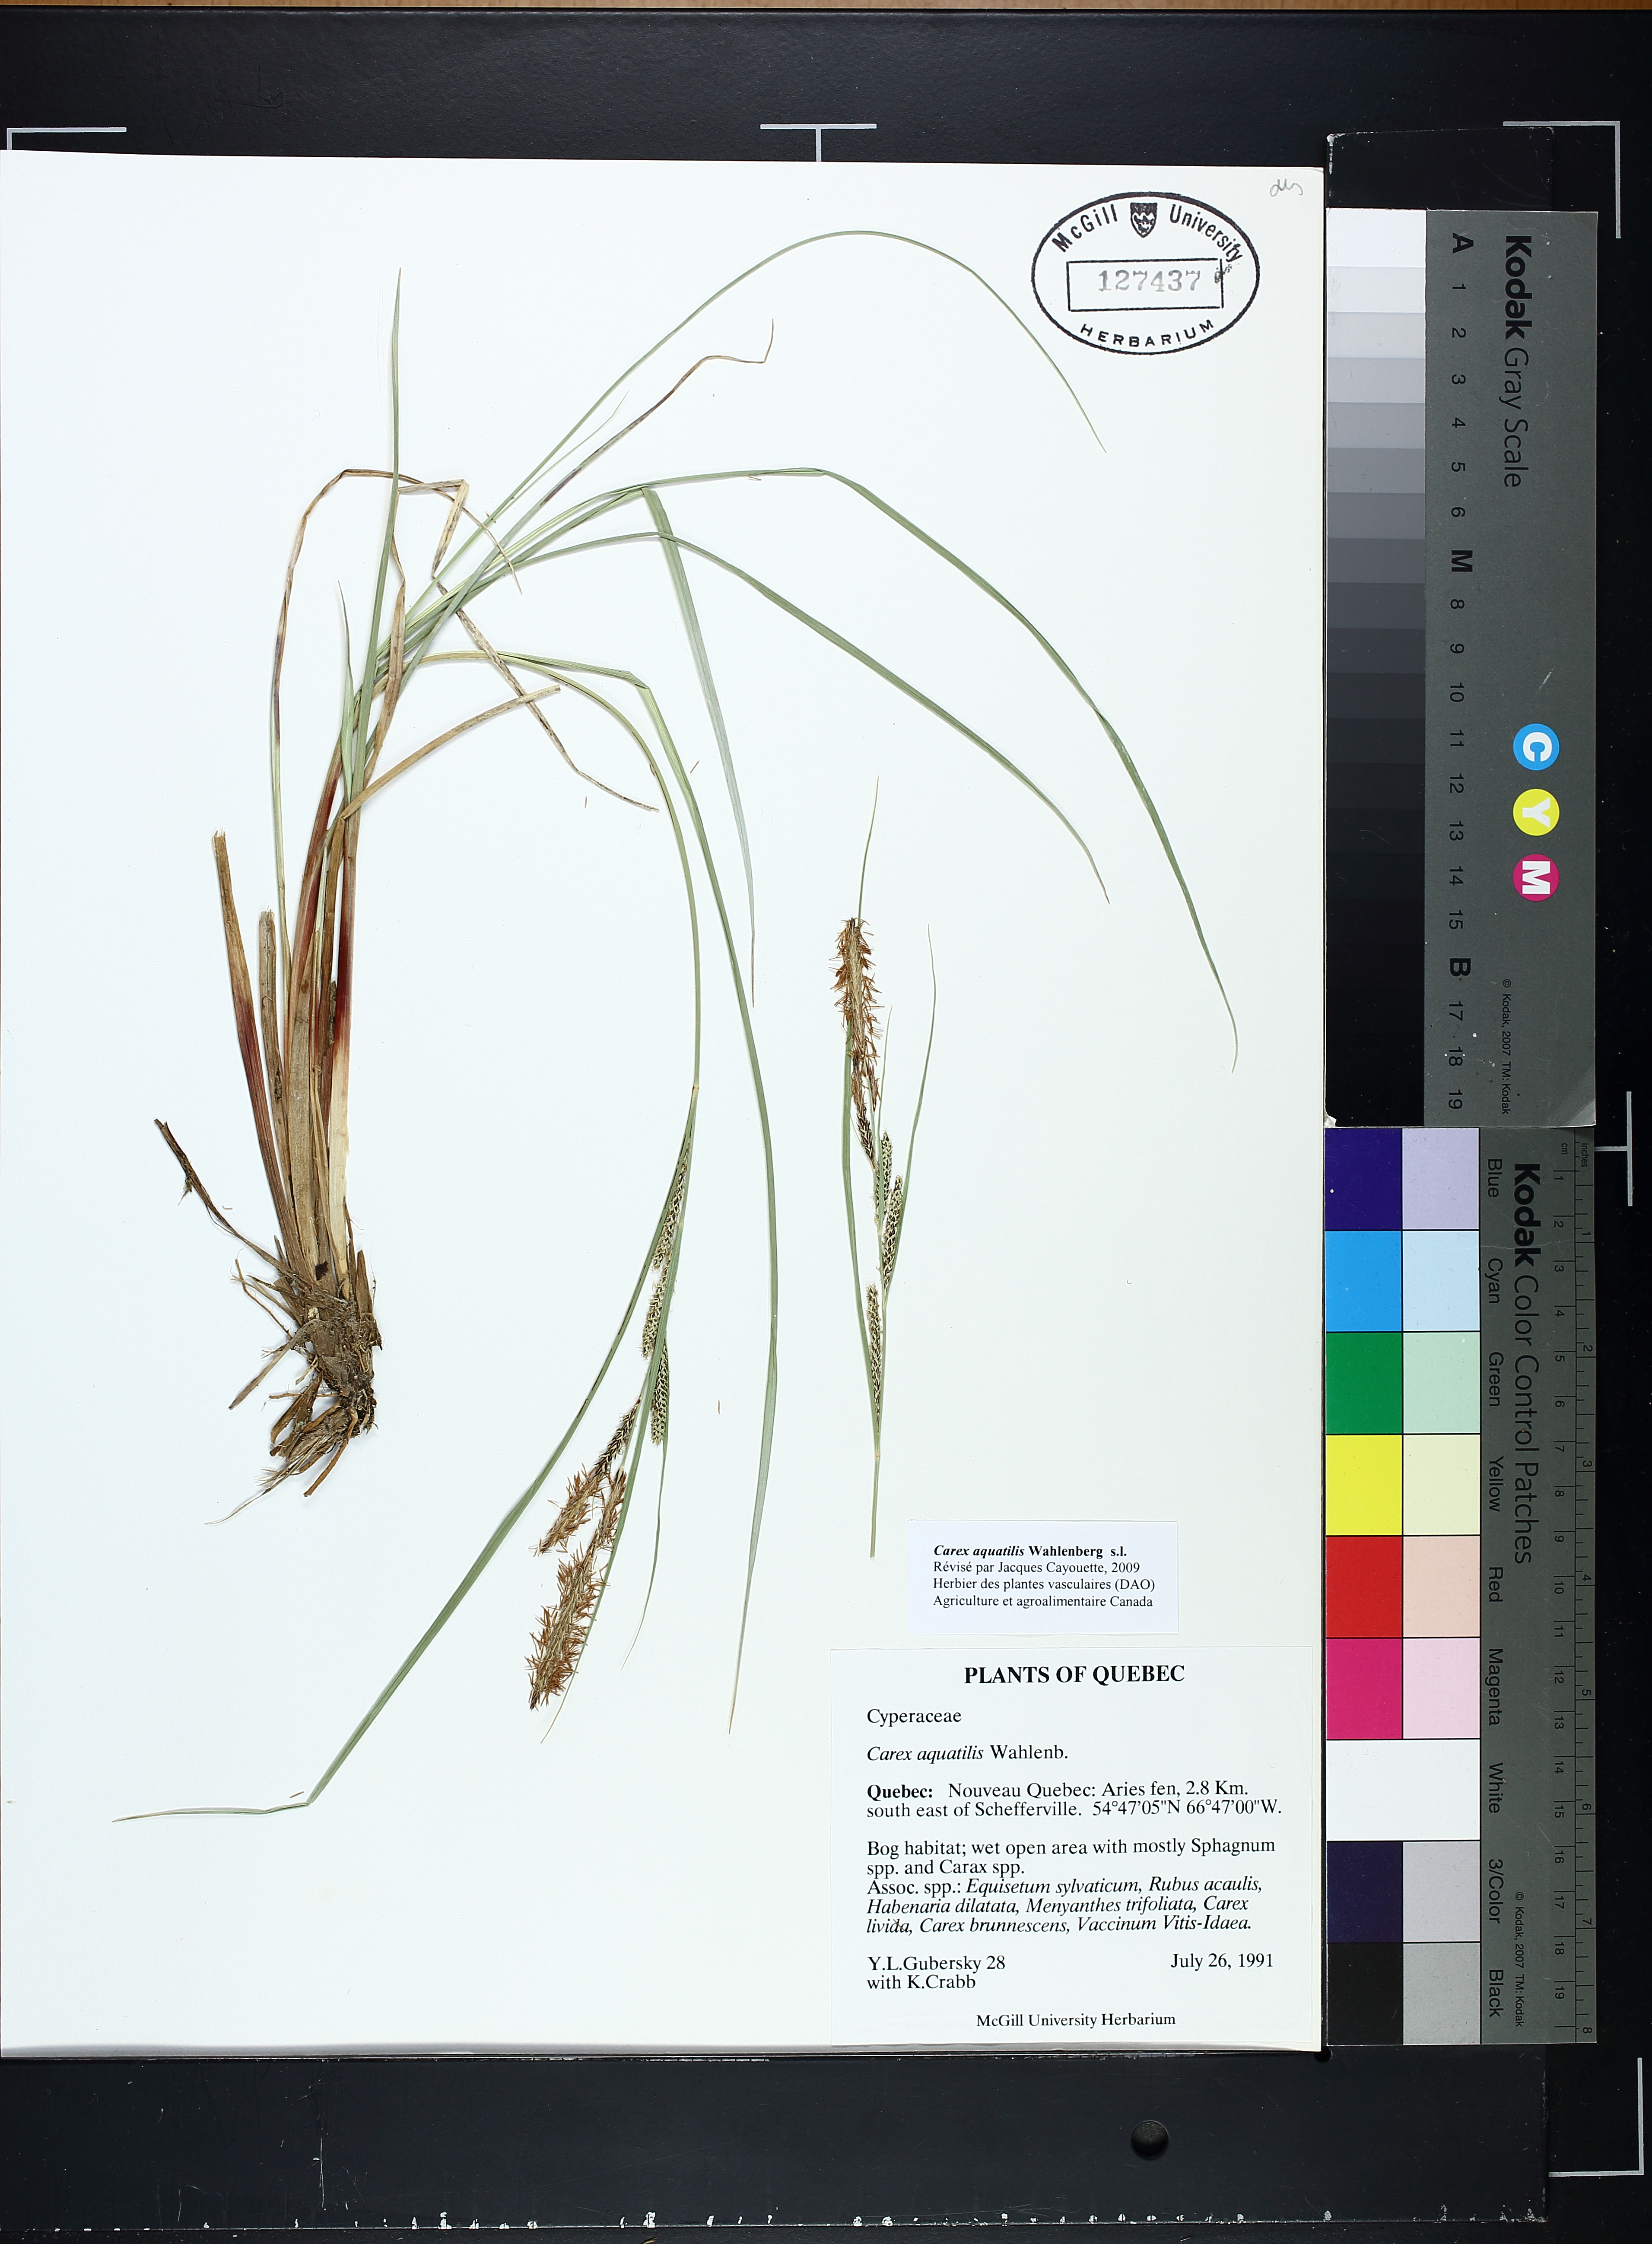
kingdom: Plantae
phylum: Tracheophyta
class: Liliopsida
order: Poales
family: Cyperaceae
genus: Carex
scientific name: Carex aquatilis
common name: Water sedge
